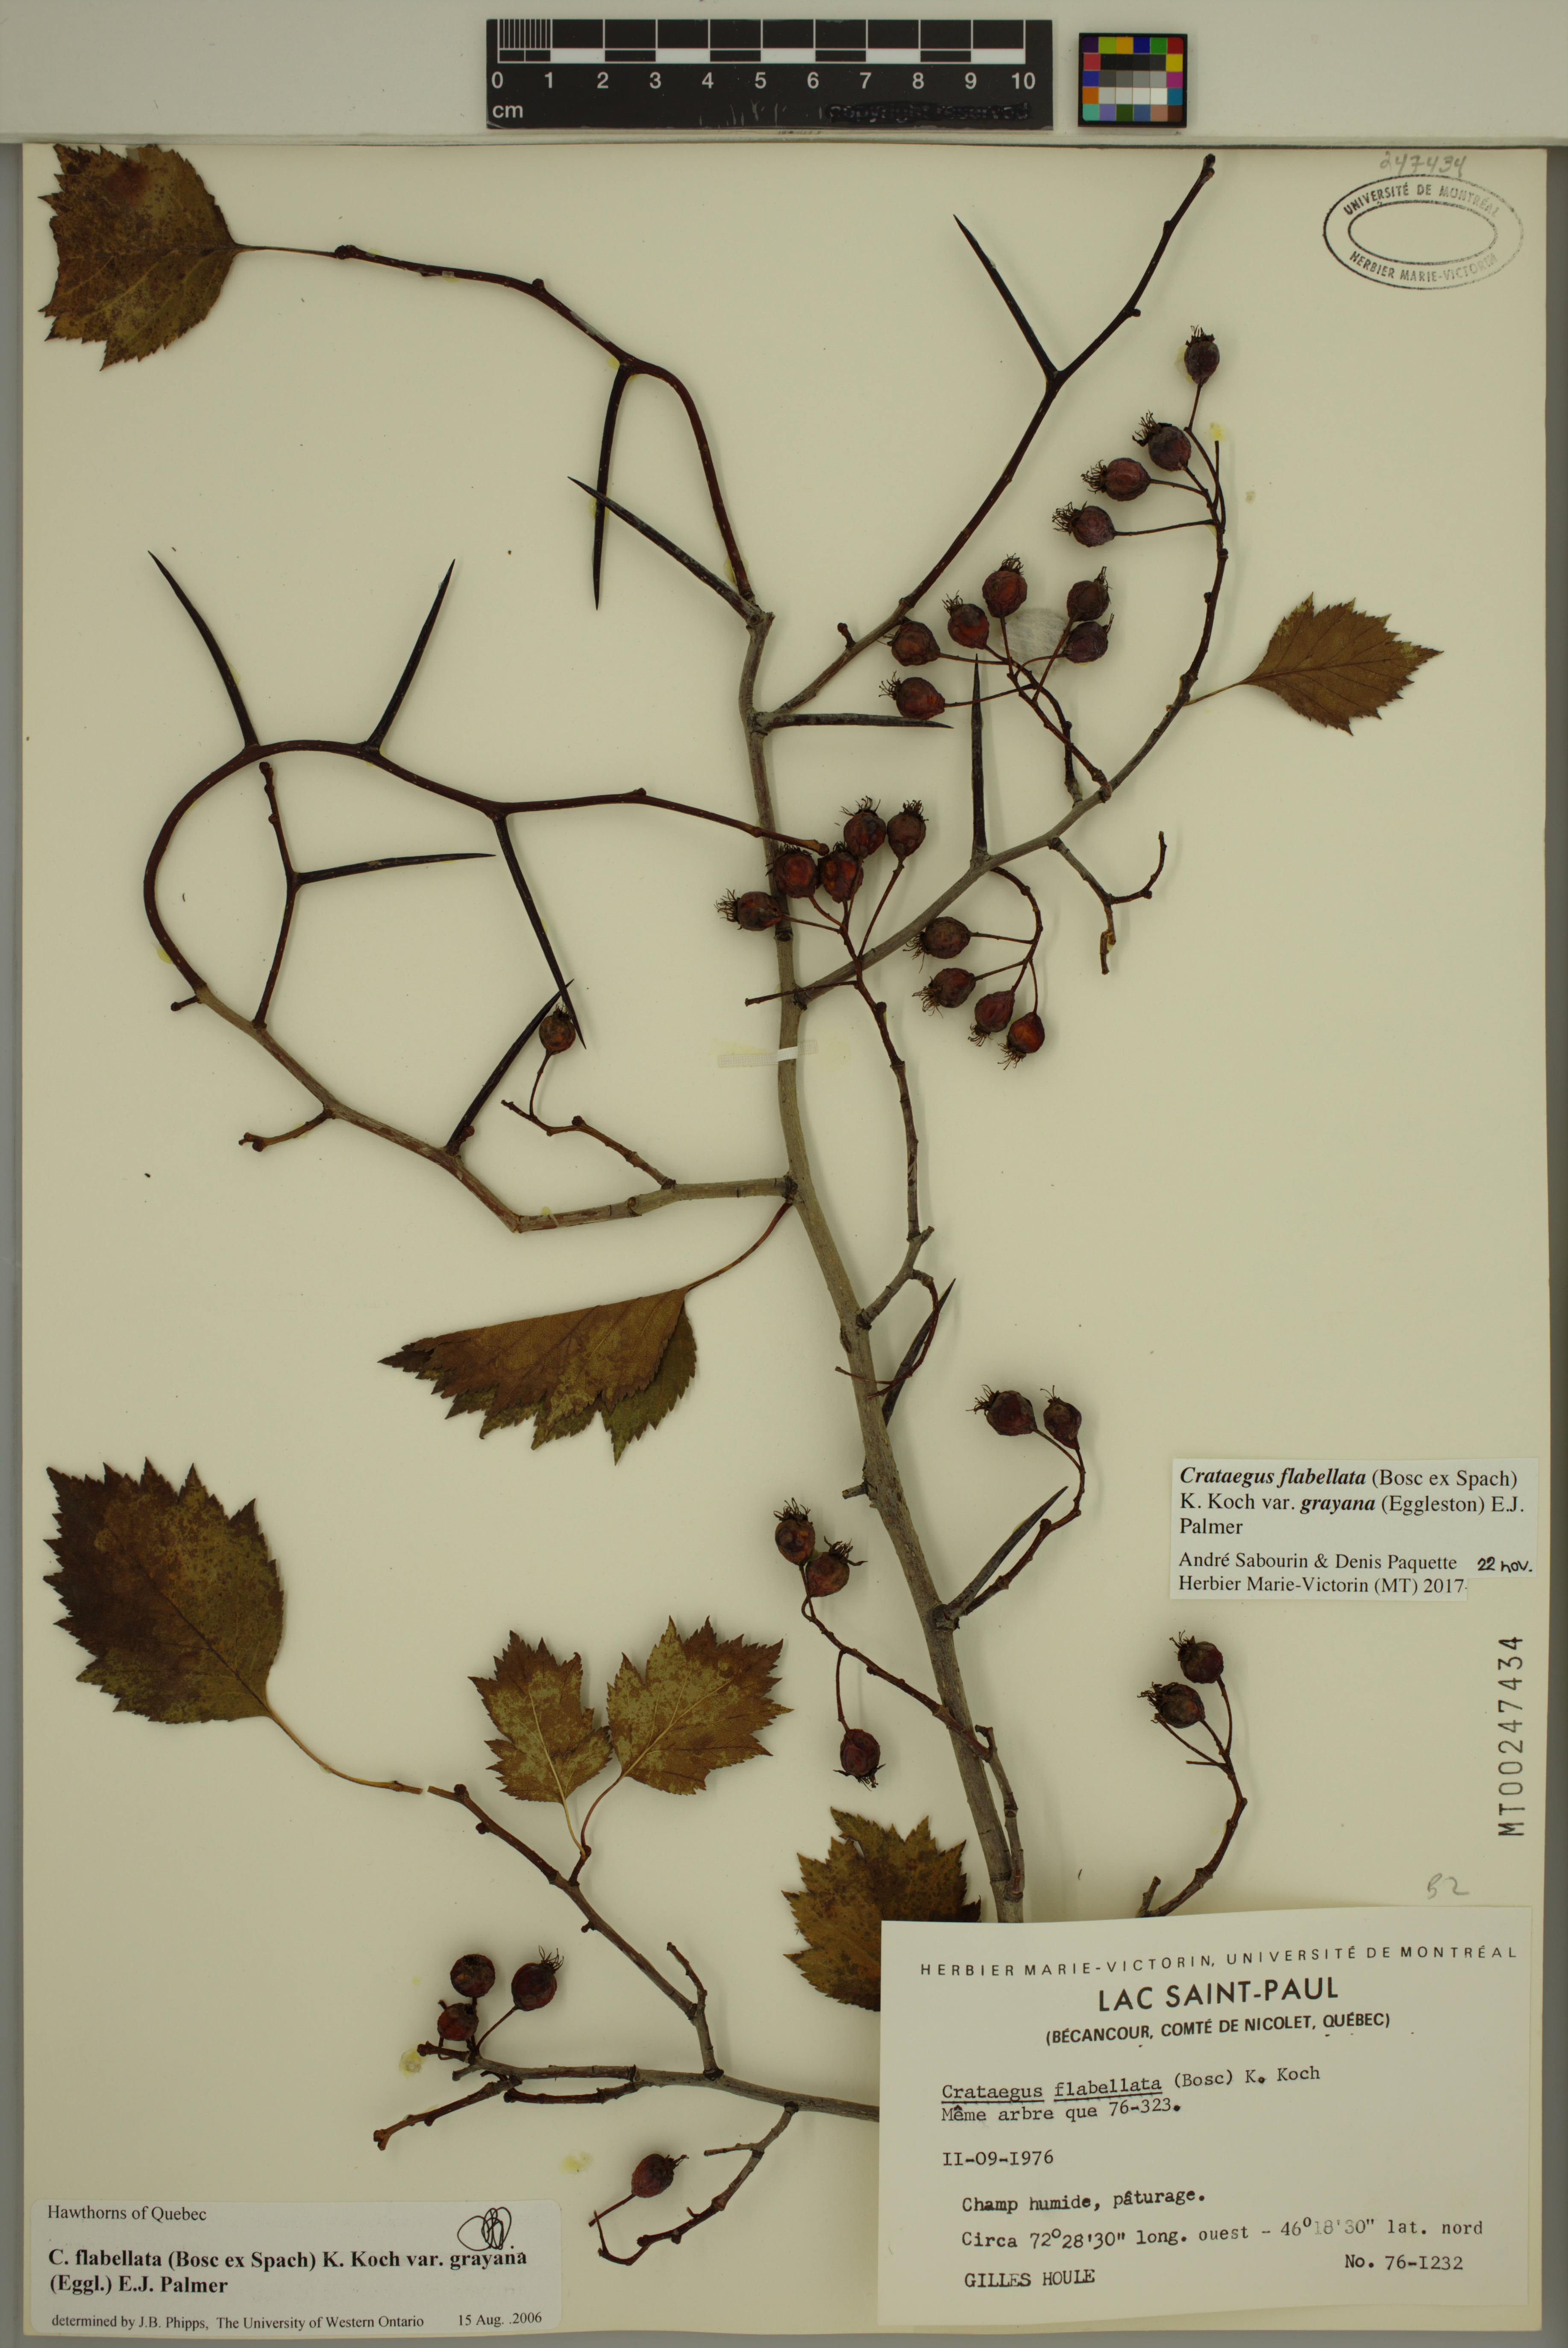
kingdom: Plantae
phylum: Tracheophyta
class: Magnoliopsida
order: Rosales
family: Rosaceae
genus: Crataegus
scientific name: Crataegus schuettei
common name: Schuette's hawthorn
